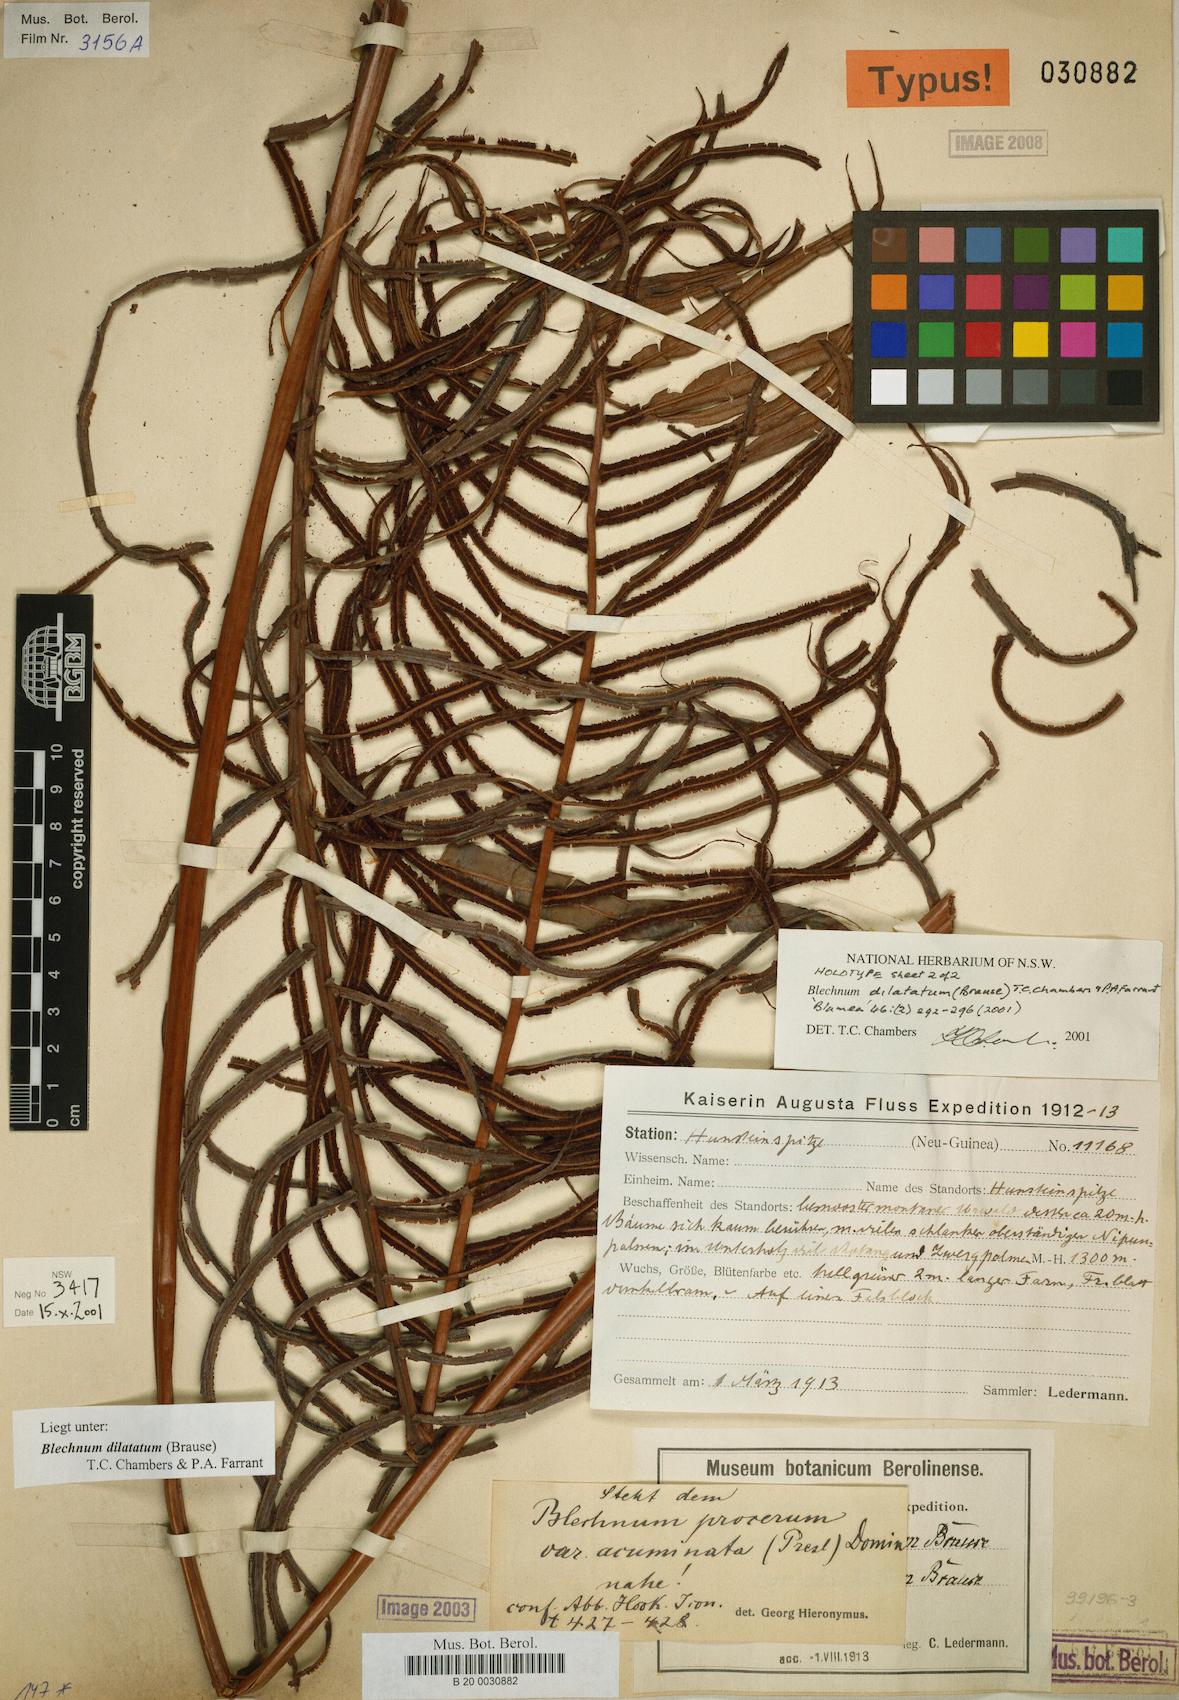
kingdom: Plantae
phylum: Tracheophyta
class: Polypodiopsida
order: Polypodiales
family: Blechnaceae
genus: Parablechnum
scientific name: Parablechnum dilatatum
